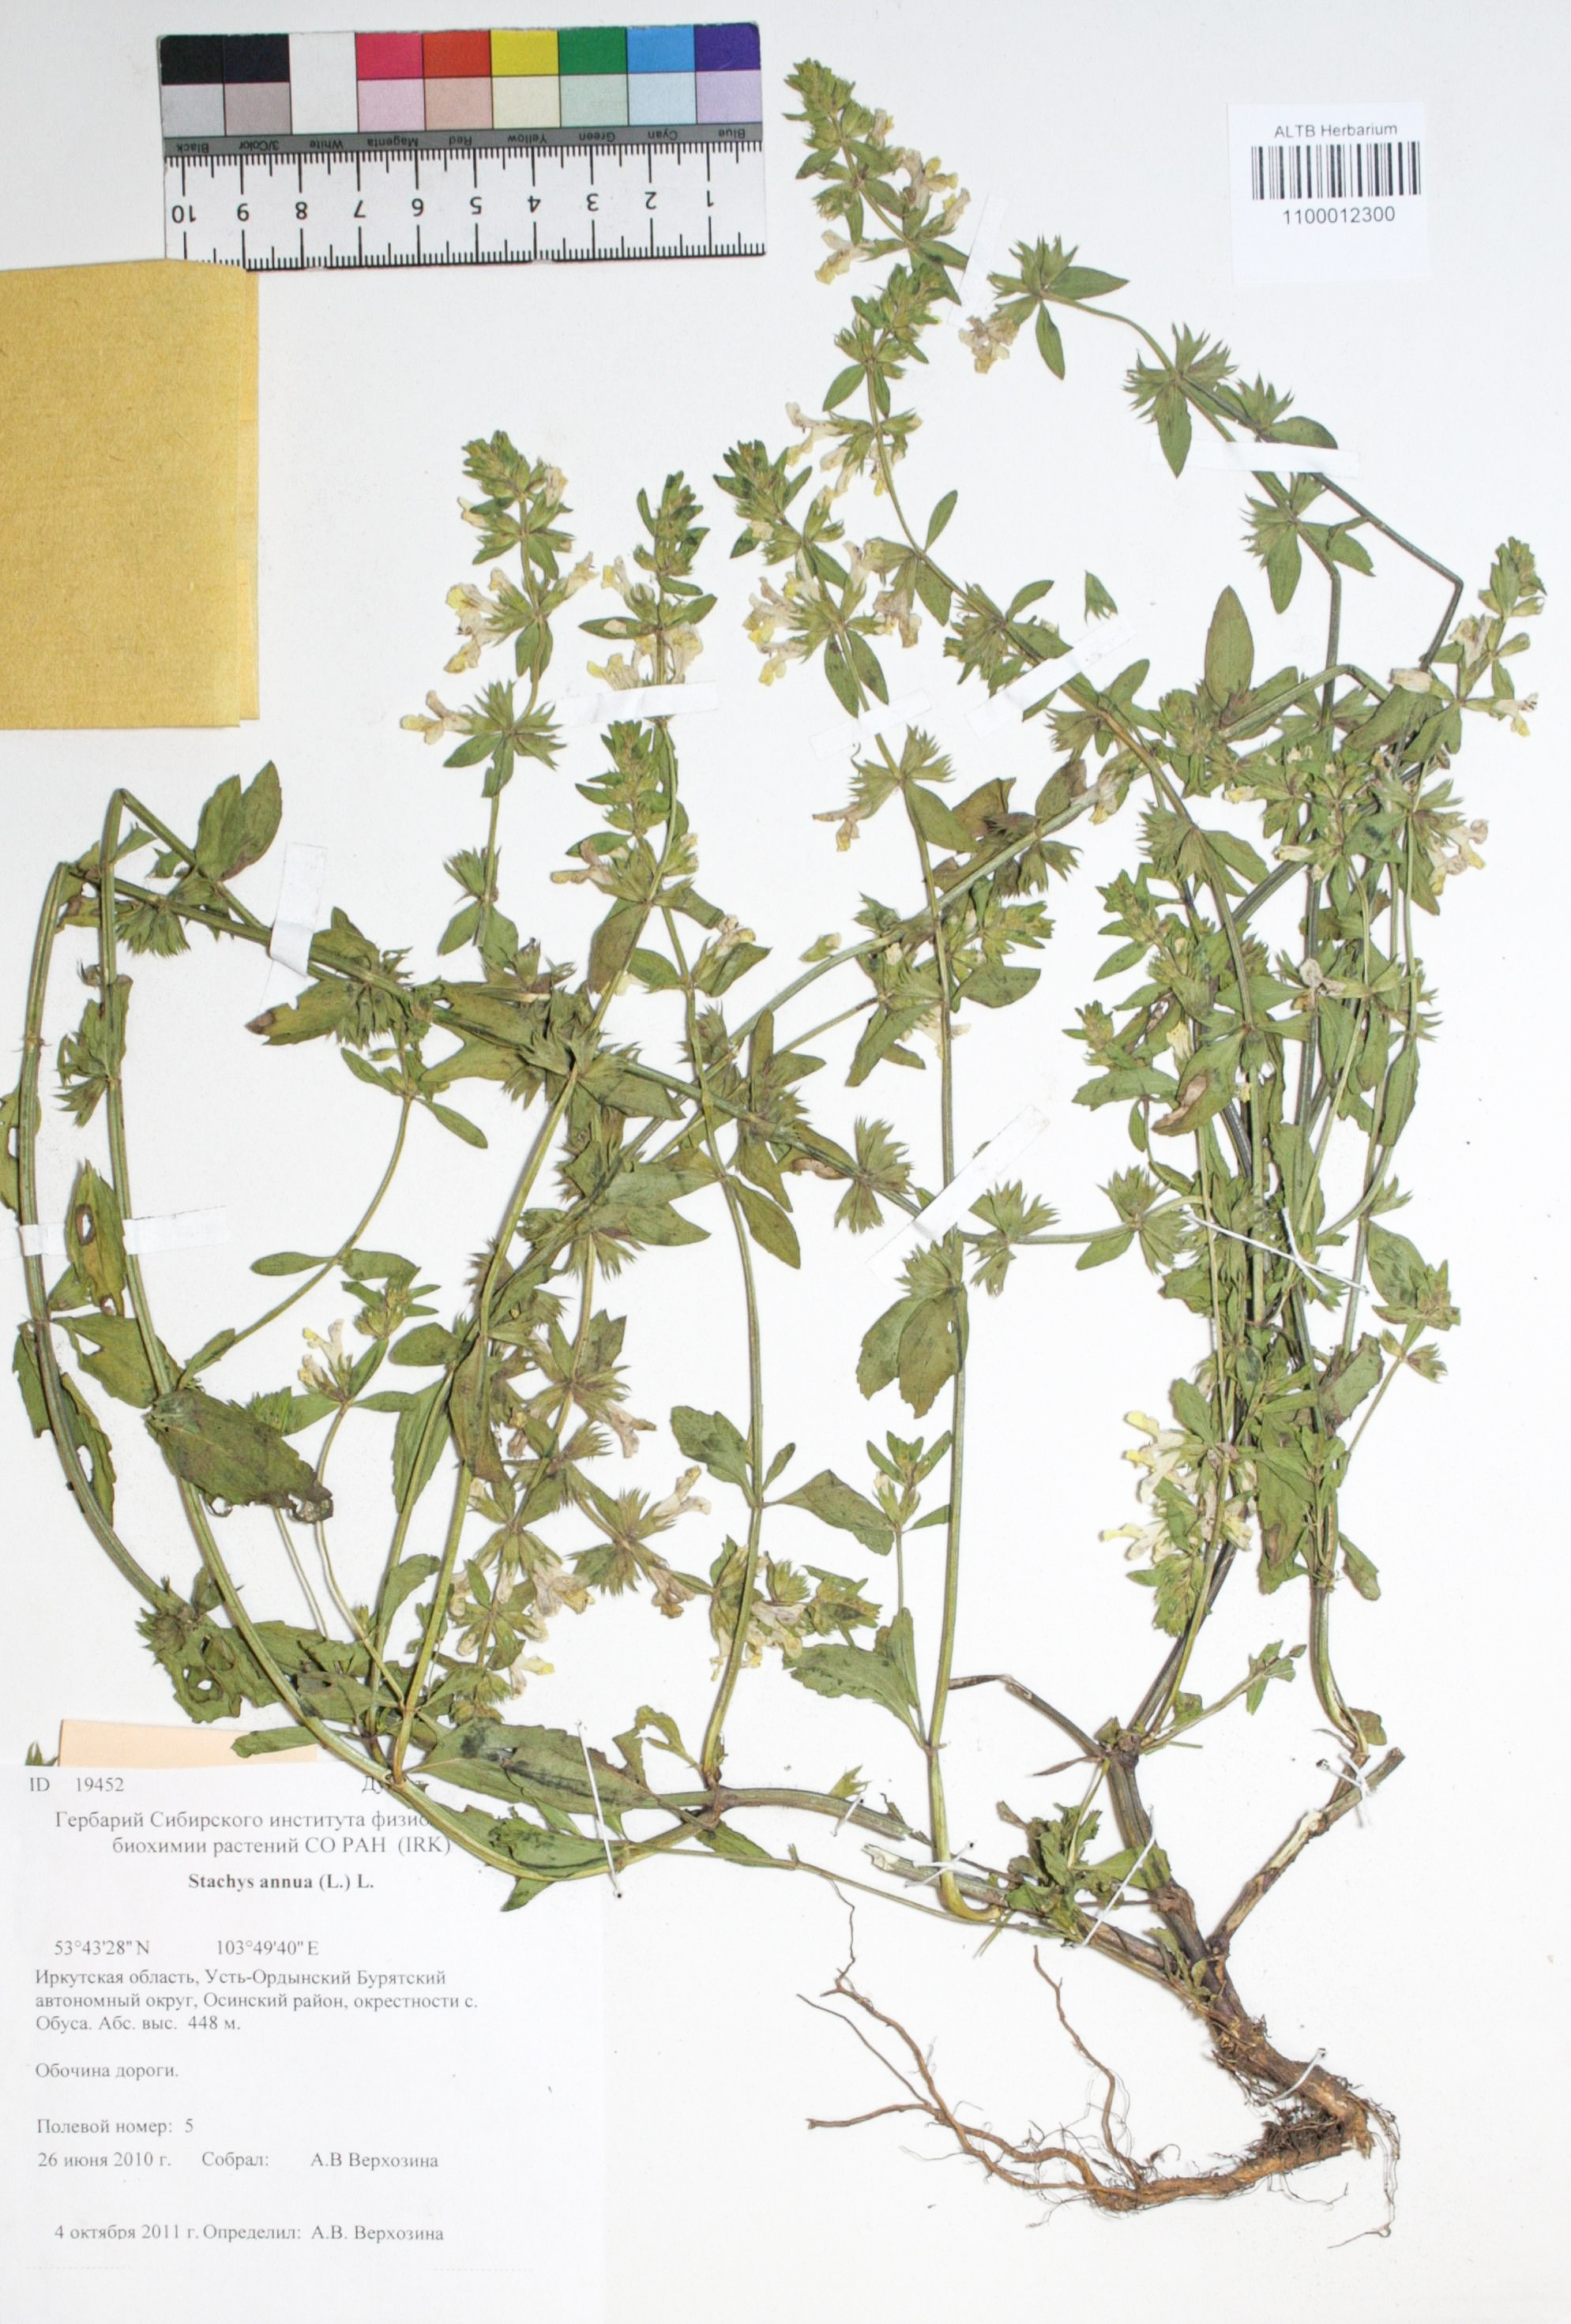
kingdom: Plantae
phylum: Tracheophyta
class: Magnoliopsida
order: Lamiales
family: Lamiaceae
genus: Stachys
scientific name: Stachys annua
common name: Annual yellow-woundwort
